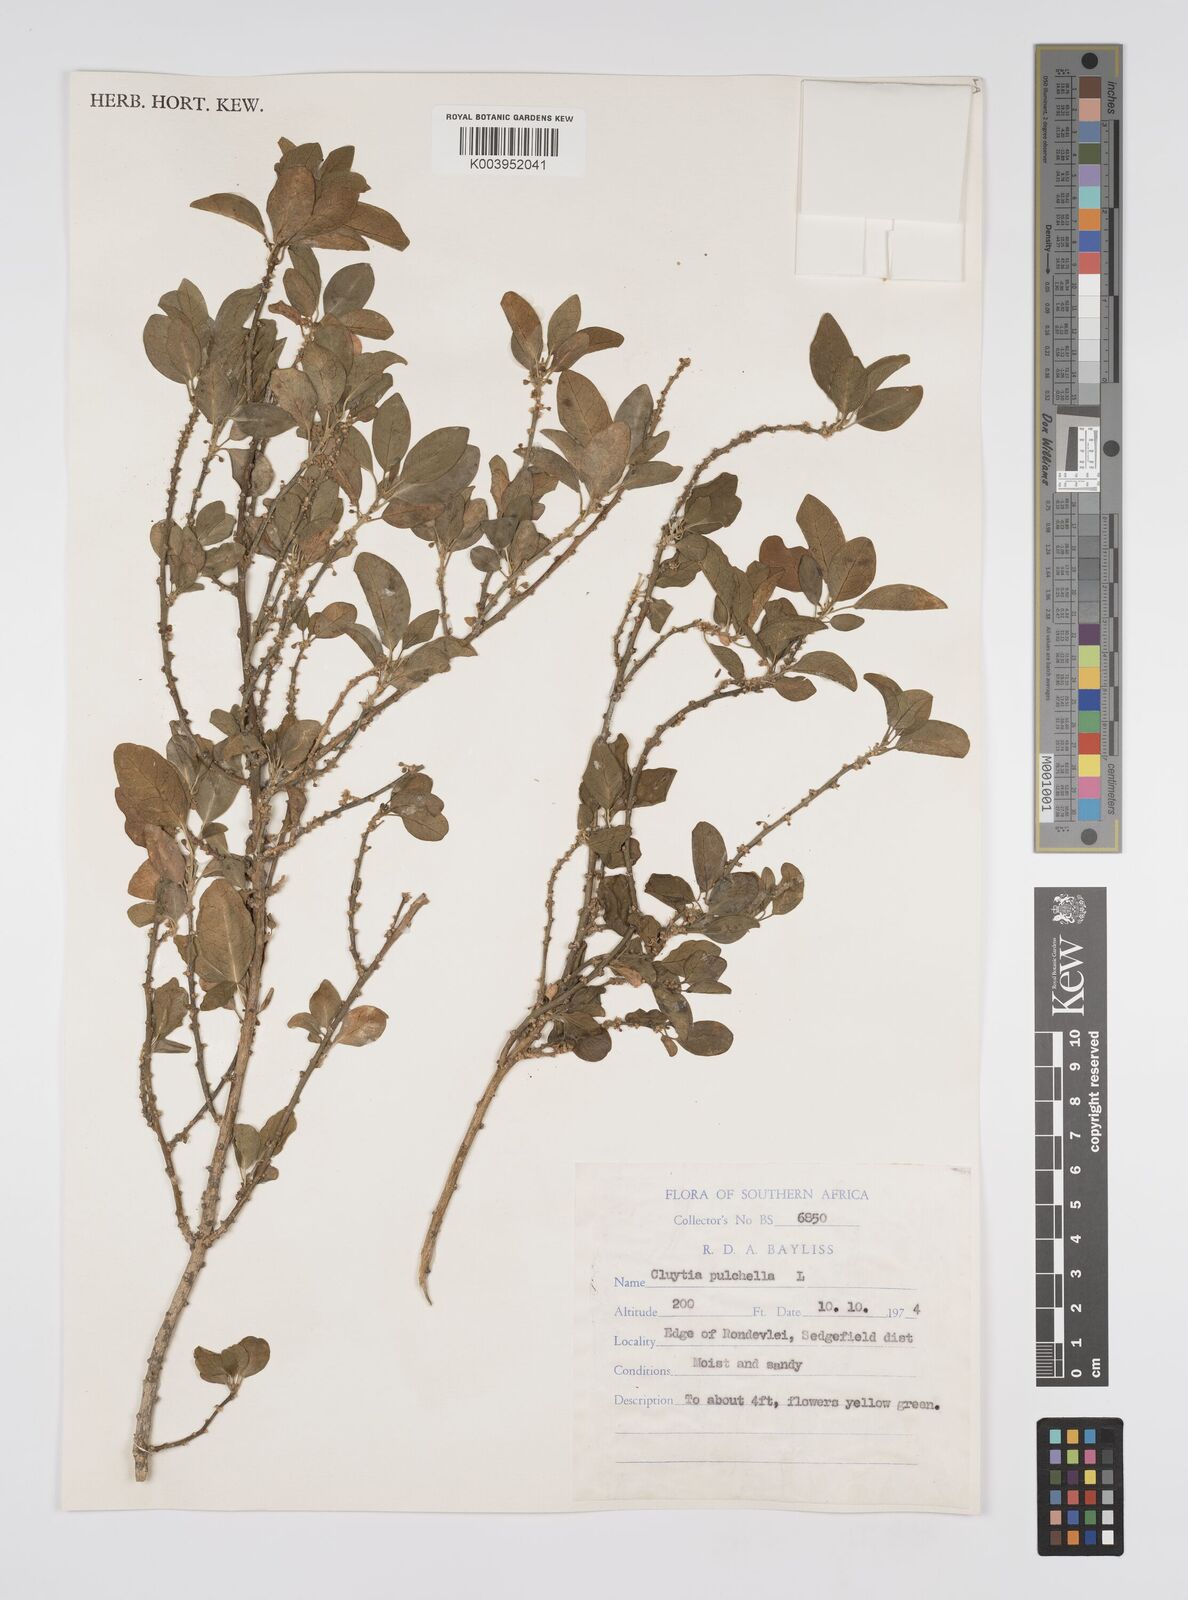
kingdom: Plantae
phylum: Tracheophyta
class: Magnoliopsida
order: Malpighiales
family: Peraceae
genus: Clutia
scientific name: Clutia pulchella
